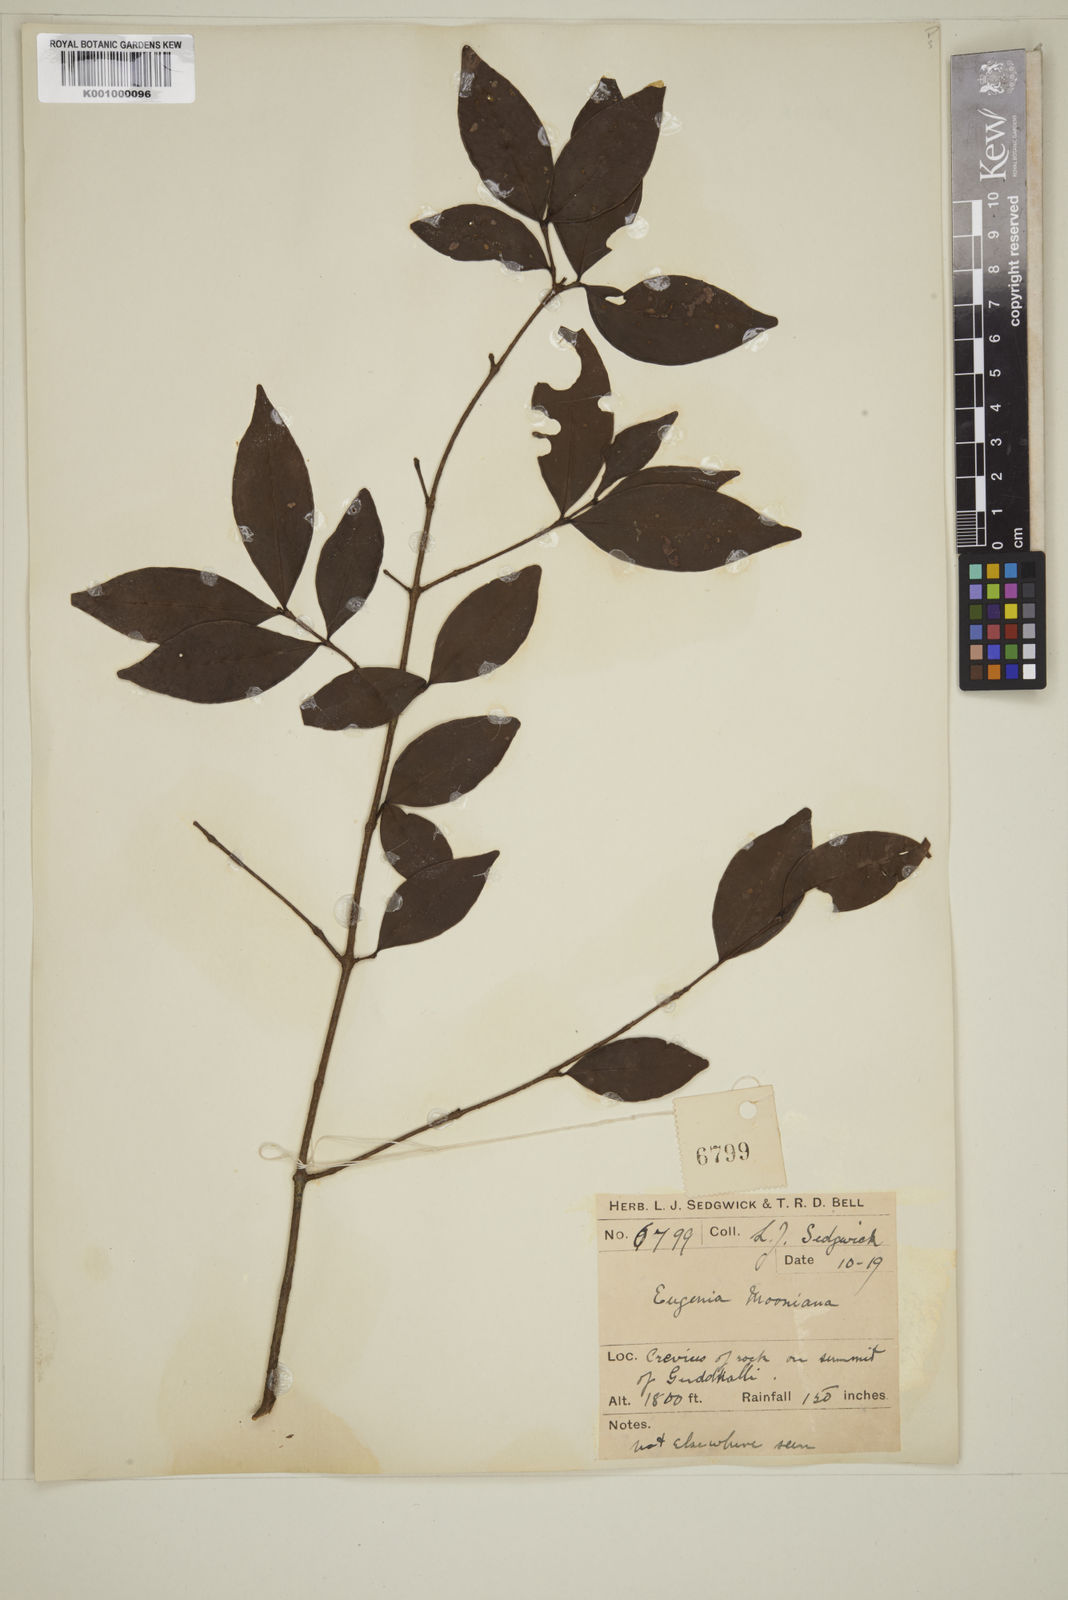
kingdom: Plantae
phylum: Tracheophyta
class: Magnoliopsida
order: Myrtales
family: Myrtaceae
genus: Eugenia
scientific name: Eugenia thwaitesii
